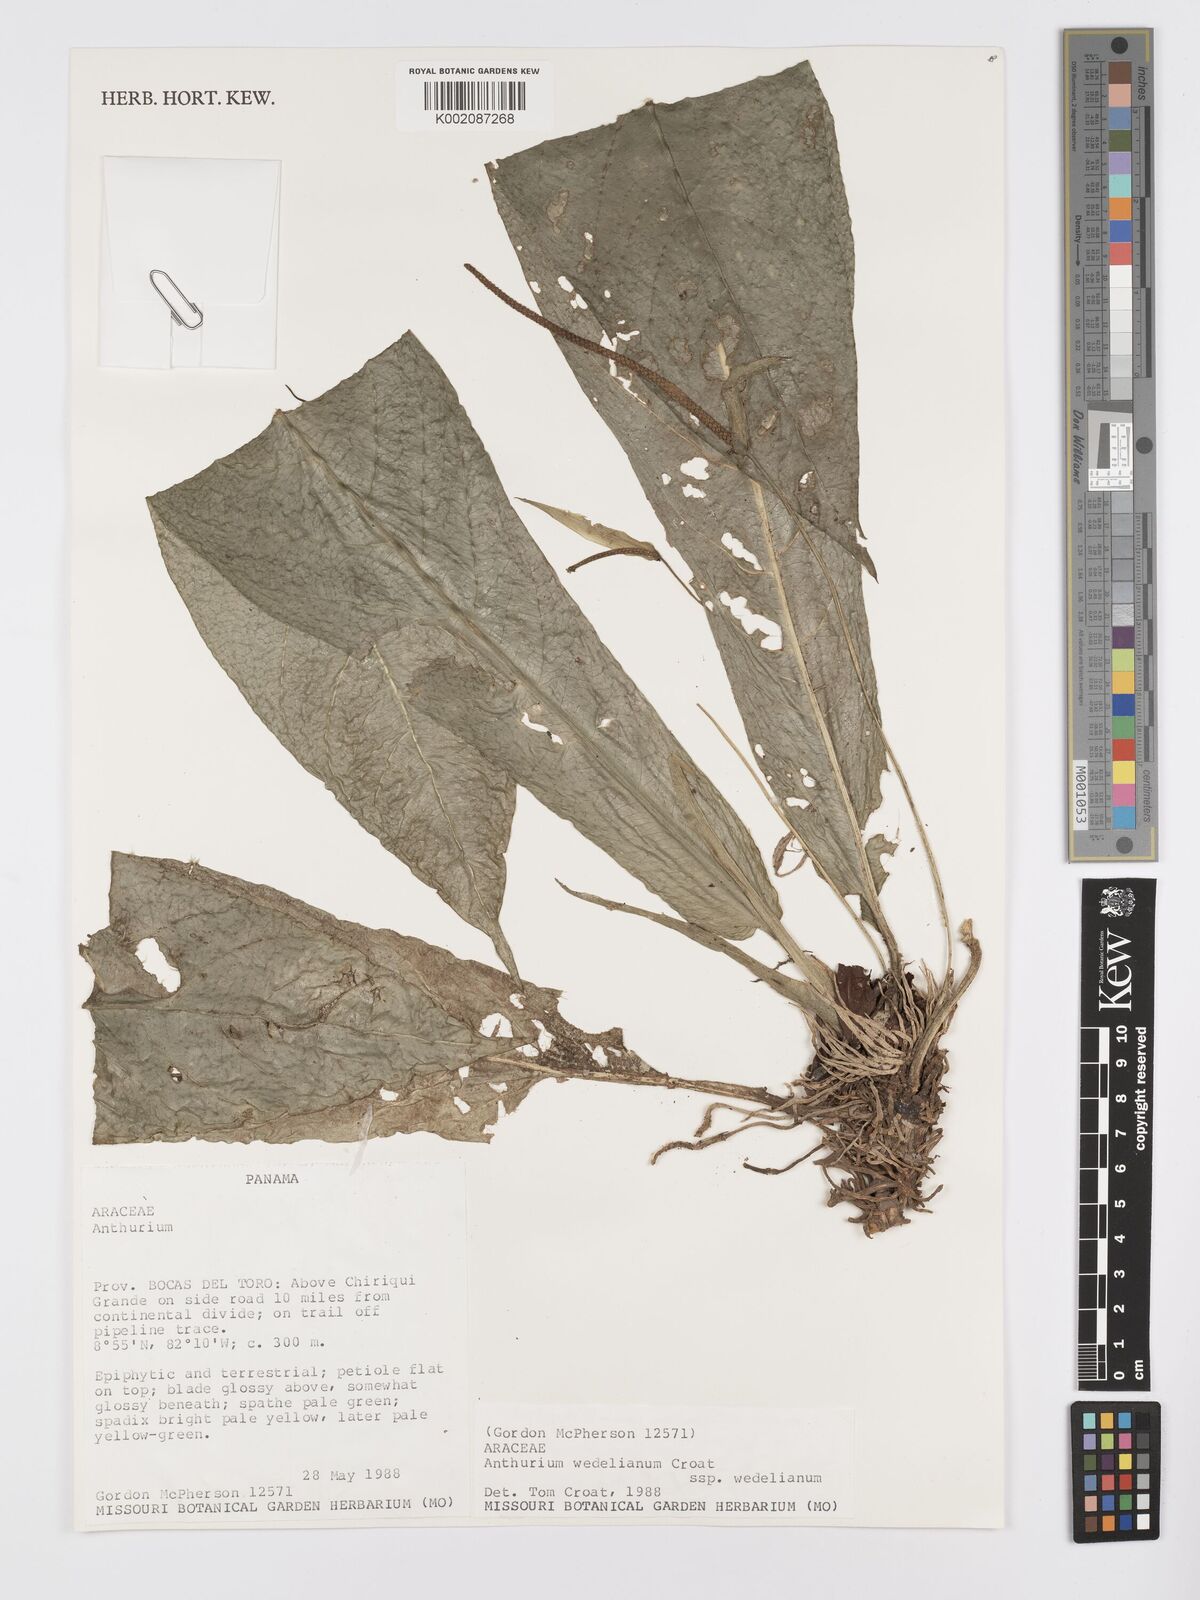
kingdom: Plantae
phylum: Tracheophyta
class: Liliopsida
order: Alismatales
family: Araceae
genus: Anthurium
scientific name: Anthurium wedelianum
